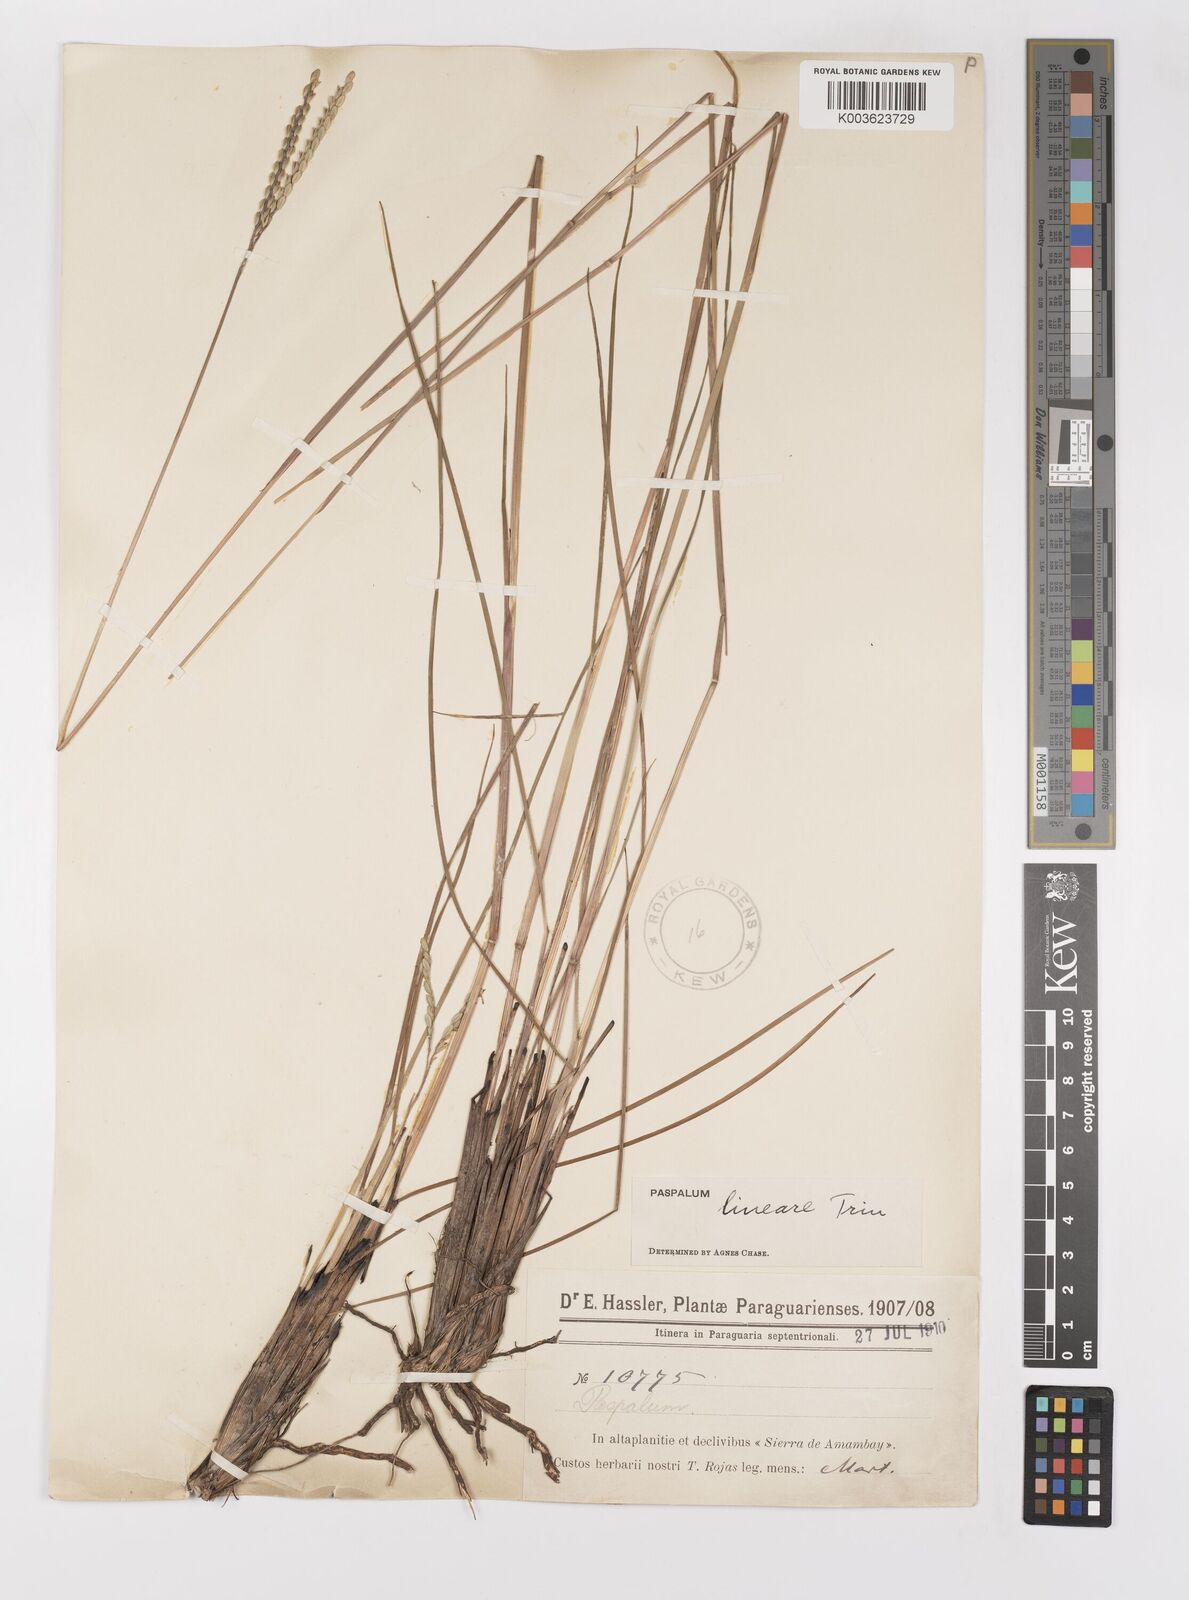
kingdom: Plantae
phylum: Tracheophyta
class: Liliopsida
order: Poales
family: Poaceae
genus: Paspalum
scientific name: Paspalum lineare
